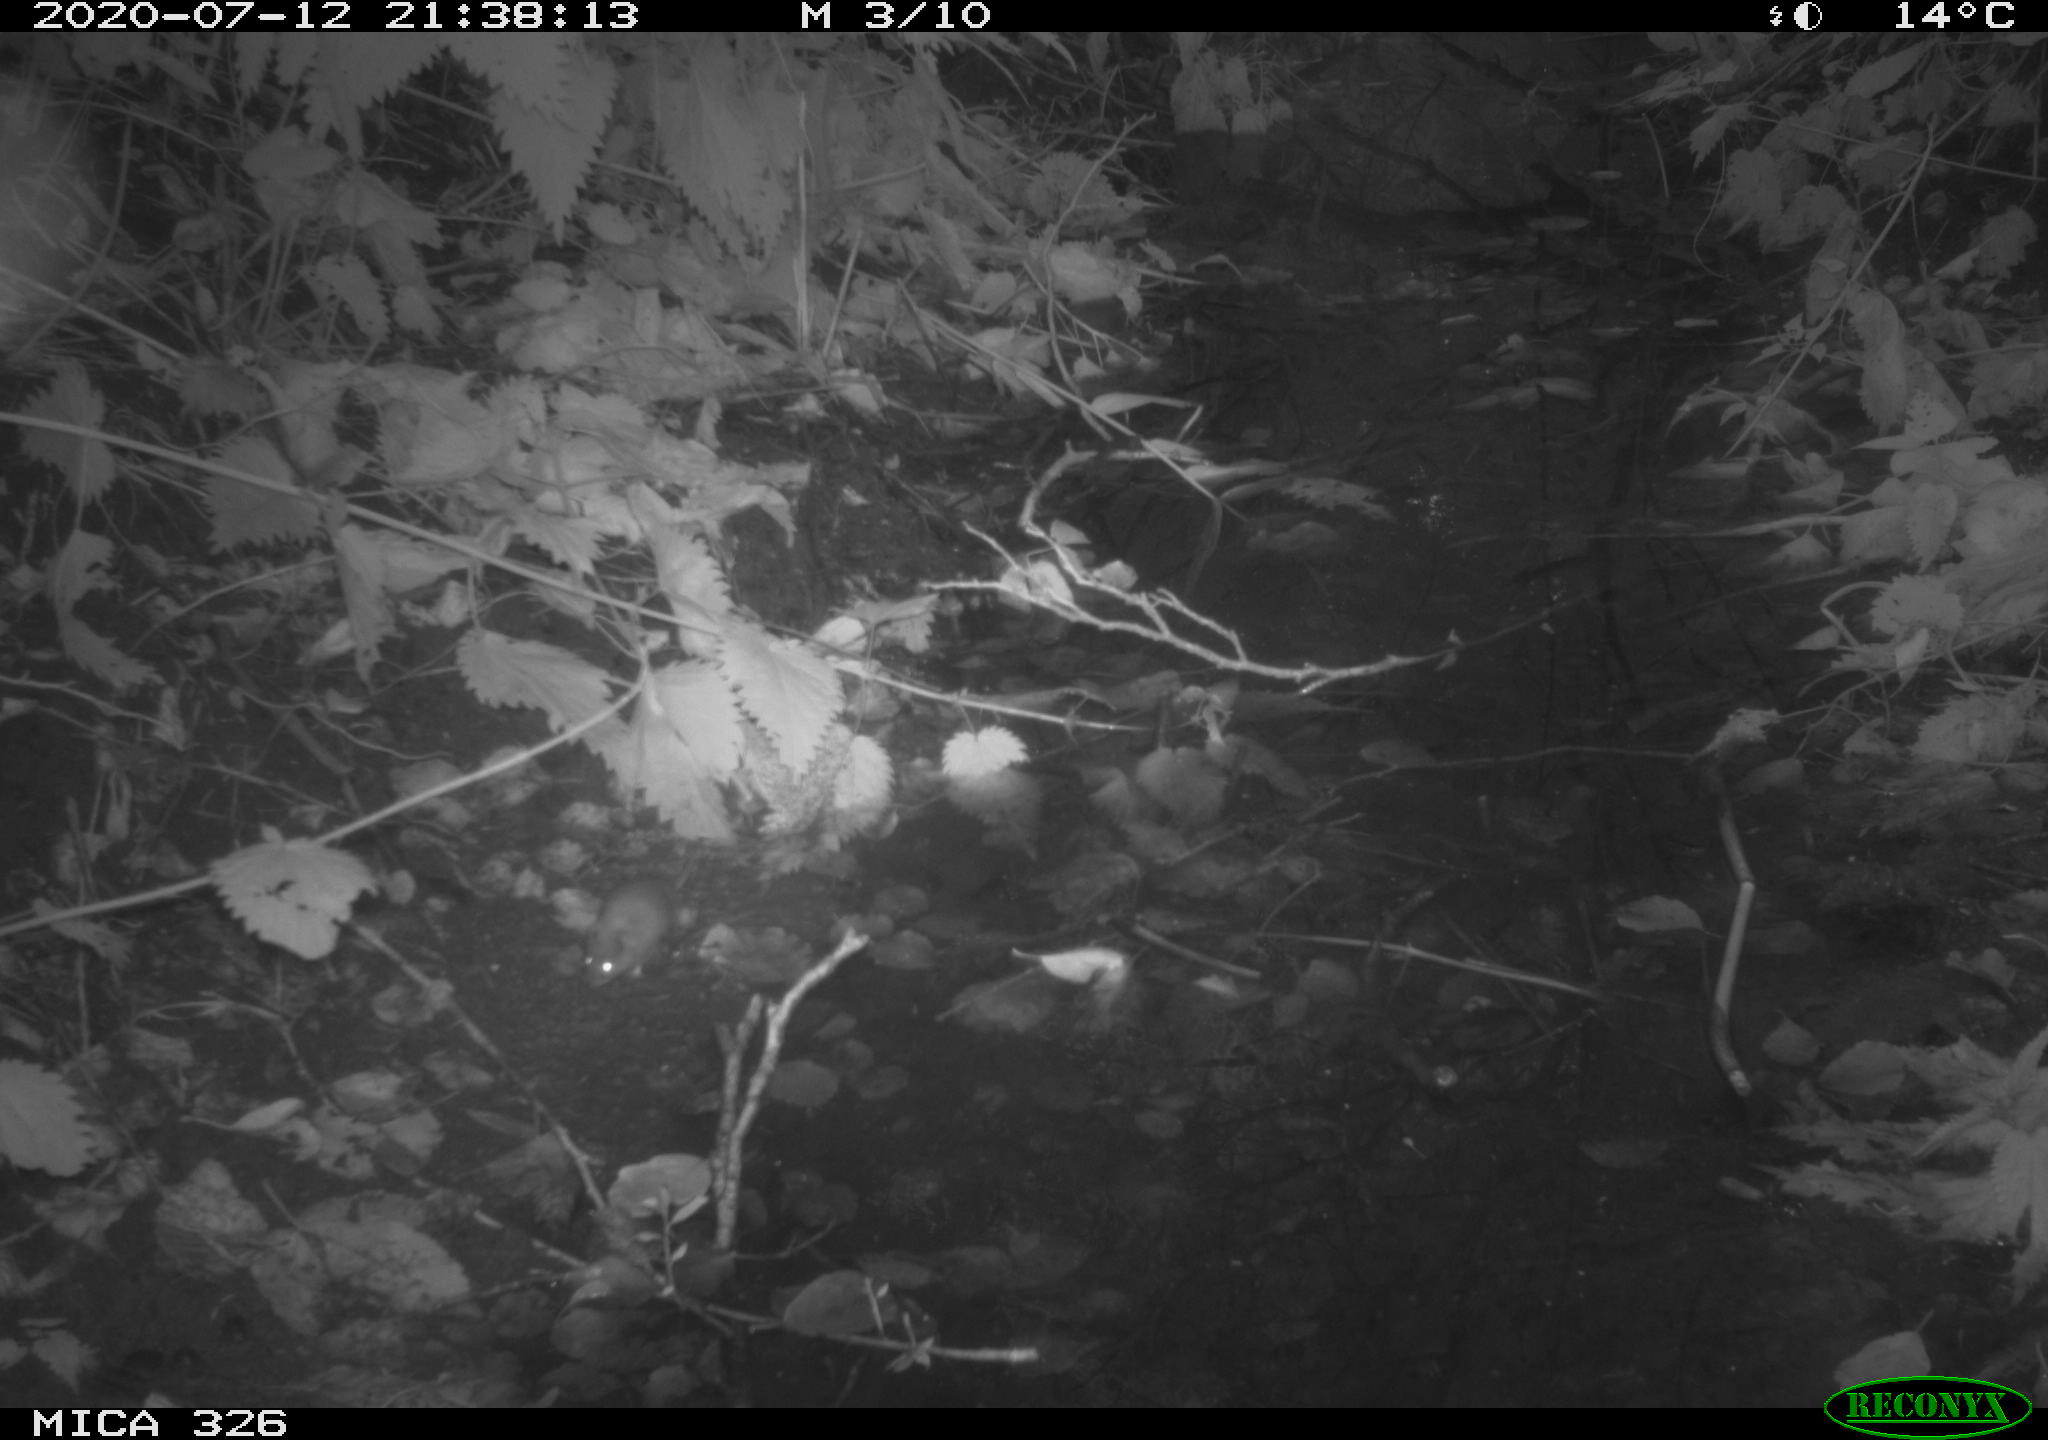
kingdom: Animalia
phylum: Chordata
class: Mammalia
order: Rodentia
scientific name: Rodentia
